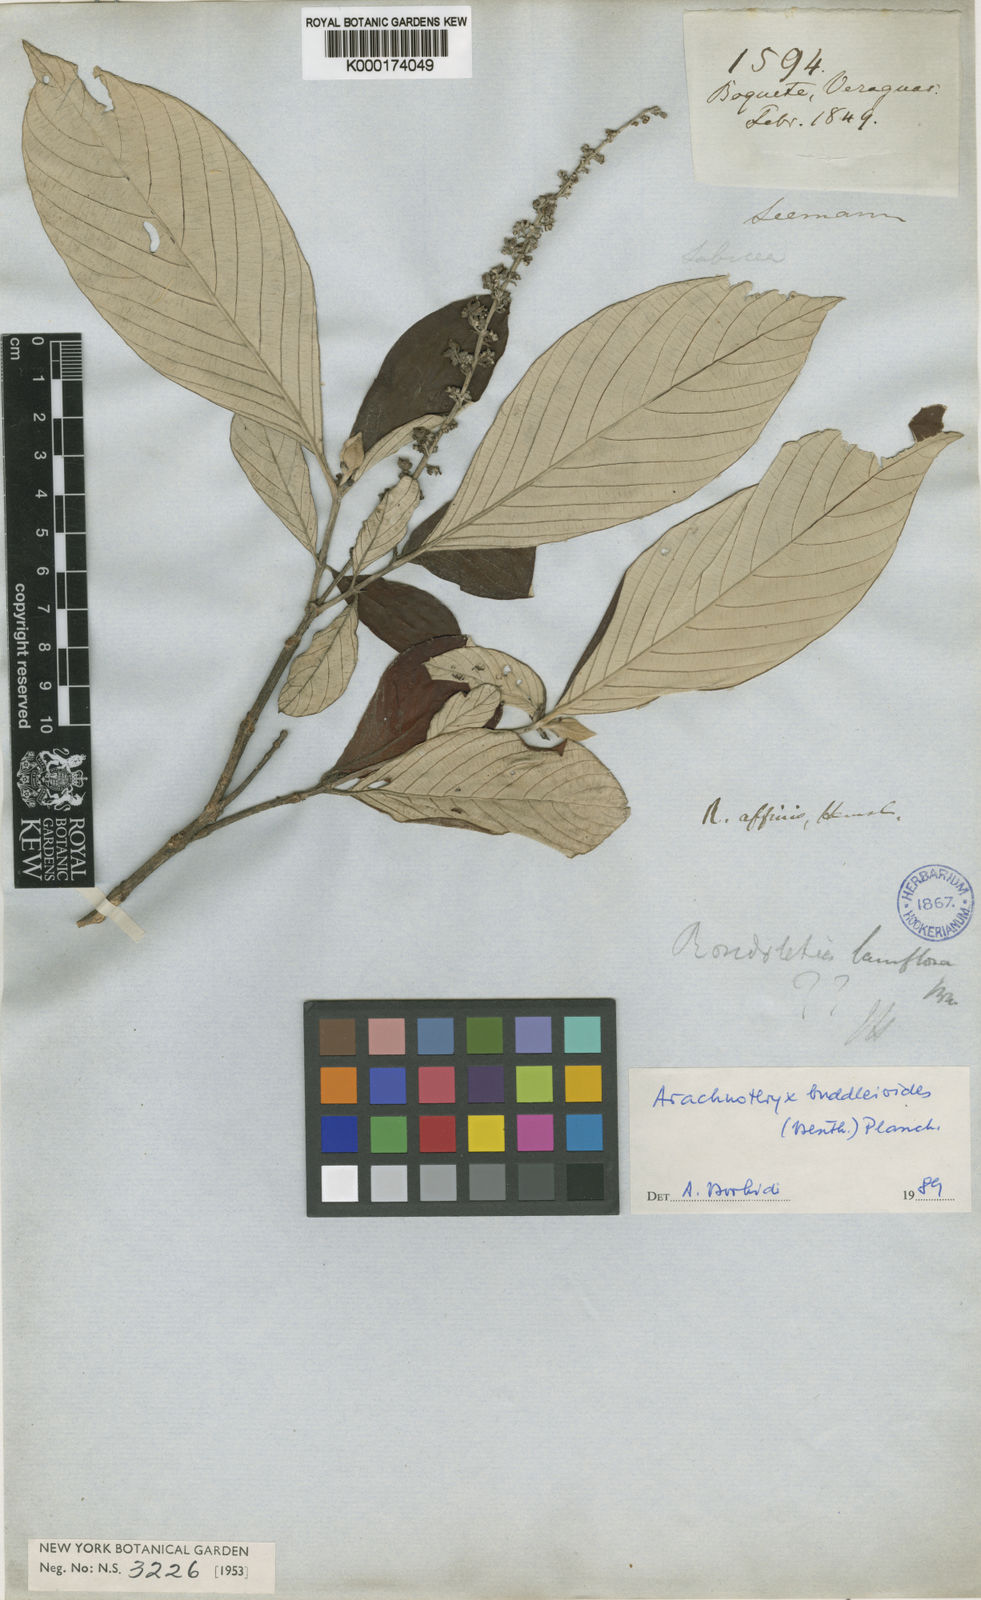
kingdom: Plantae
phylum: Tracheophyta
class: Magnoliopsida
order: Gentianales
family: Rubiaceae
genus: Arachnothryx
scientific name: Arachnothryx buddleioides
